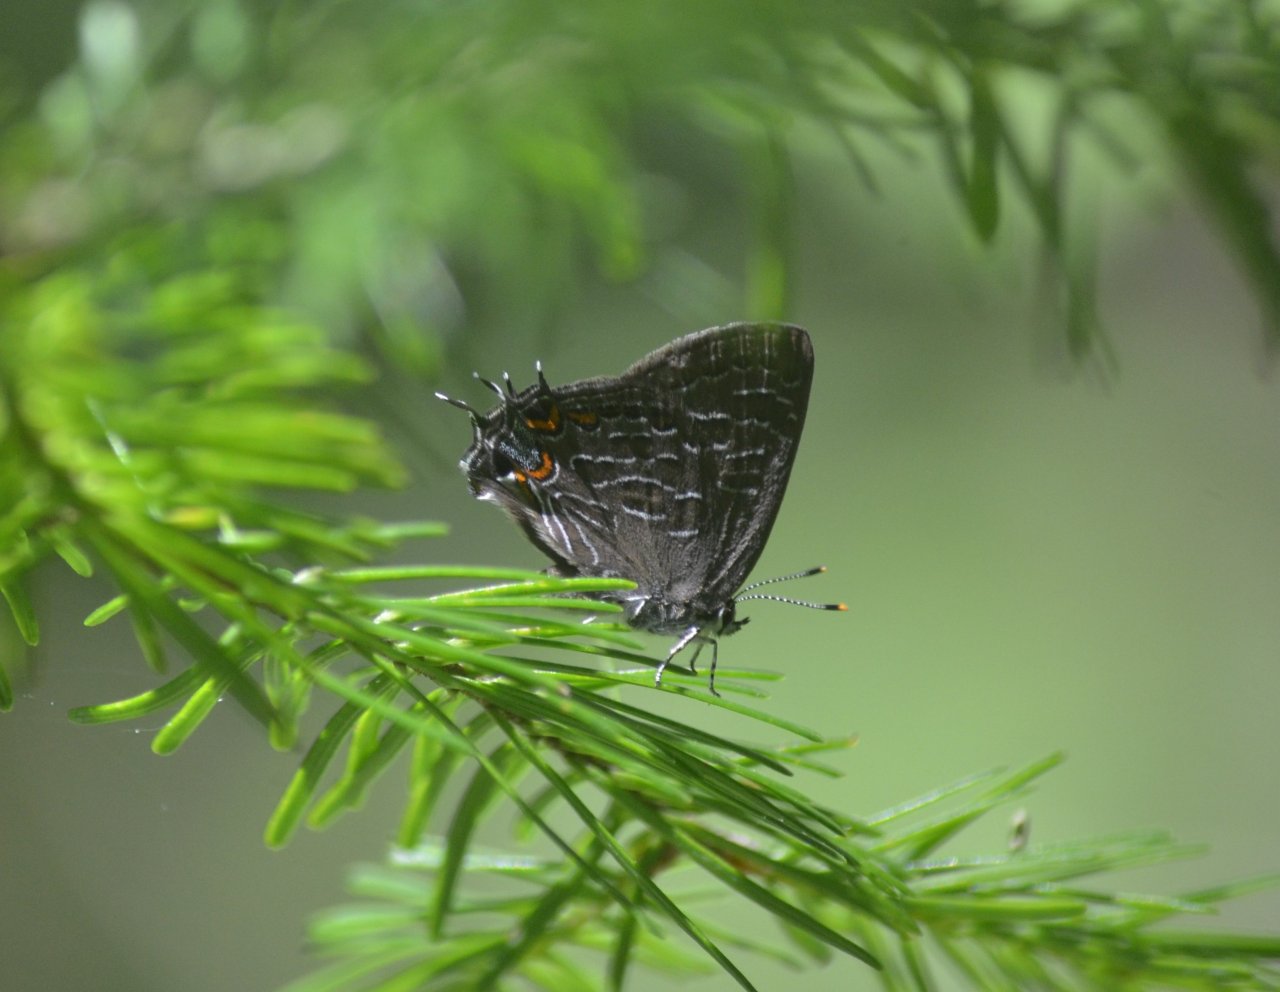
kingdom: Animalia
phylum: Arthropoda
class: Insecta
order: Lepidoptera
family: Lycaenidae
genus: Satyrium
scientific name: Satyrium liparops
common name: Striped Hairstreak
